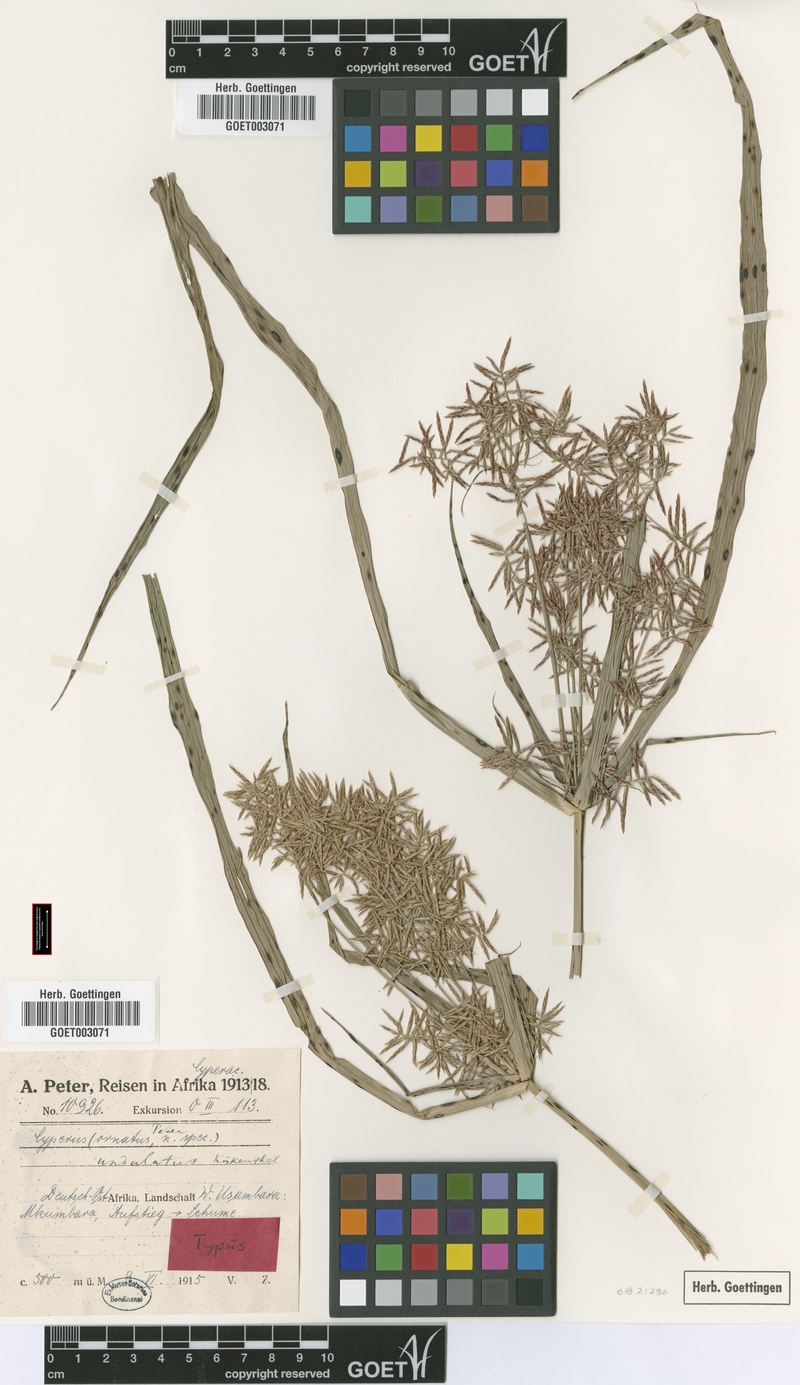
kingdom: Plantae
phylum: Tracheophyta
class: Liliopsida
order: Poales
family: Cyperaceae
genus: Cyperus
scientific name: Cyperus undulatus
